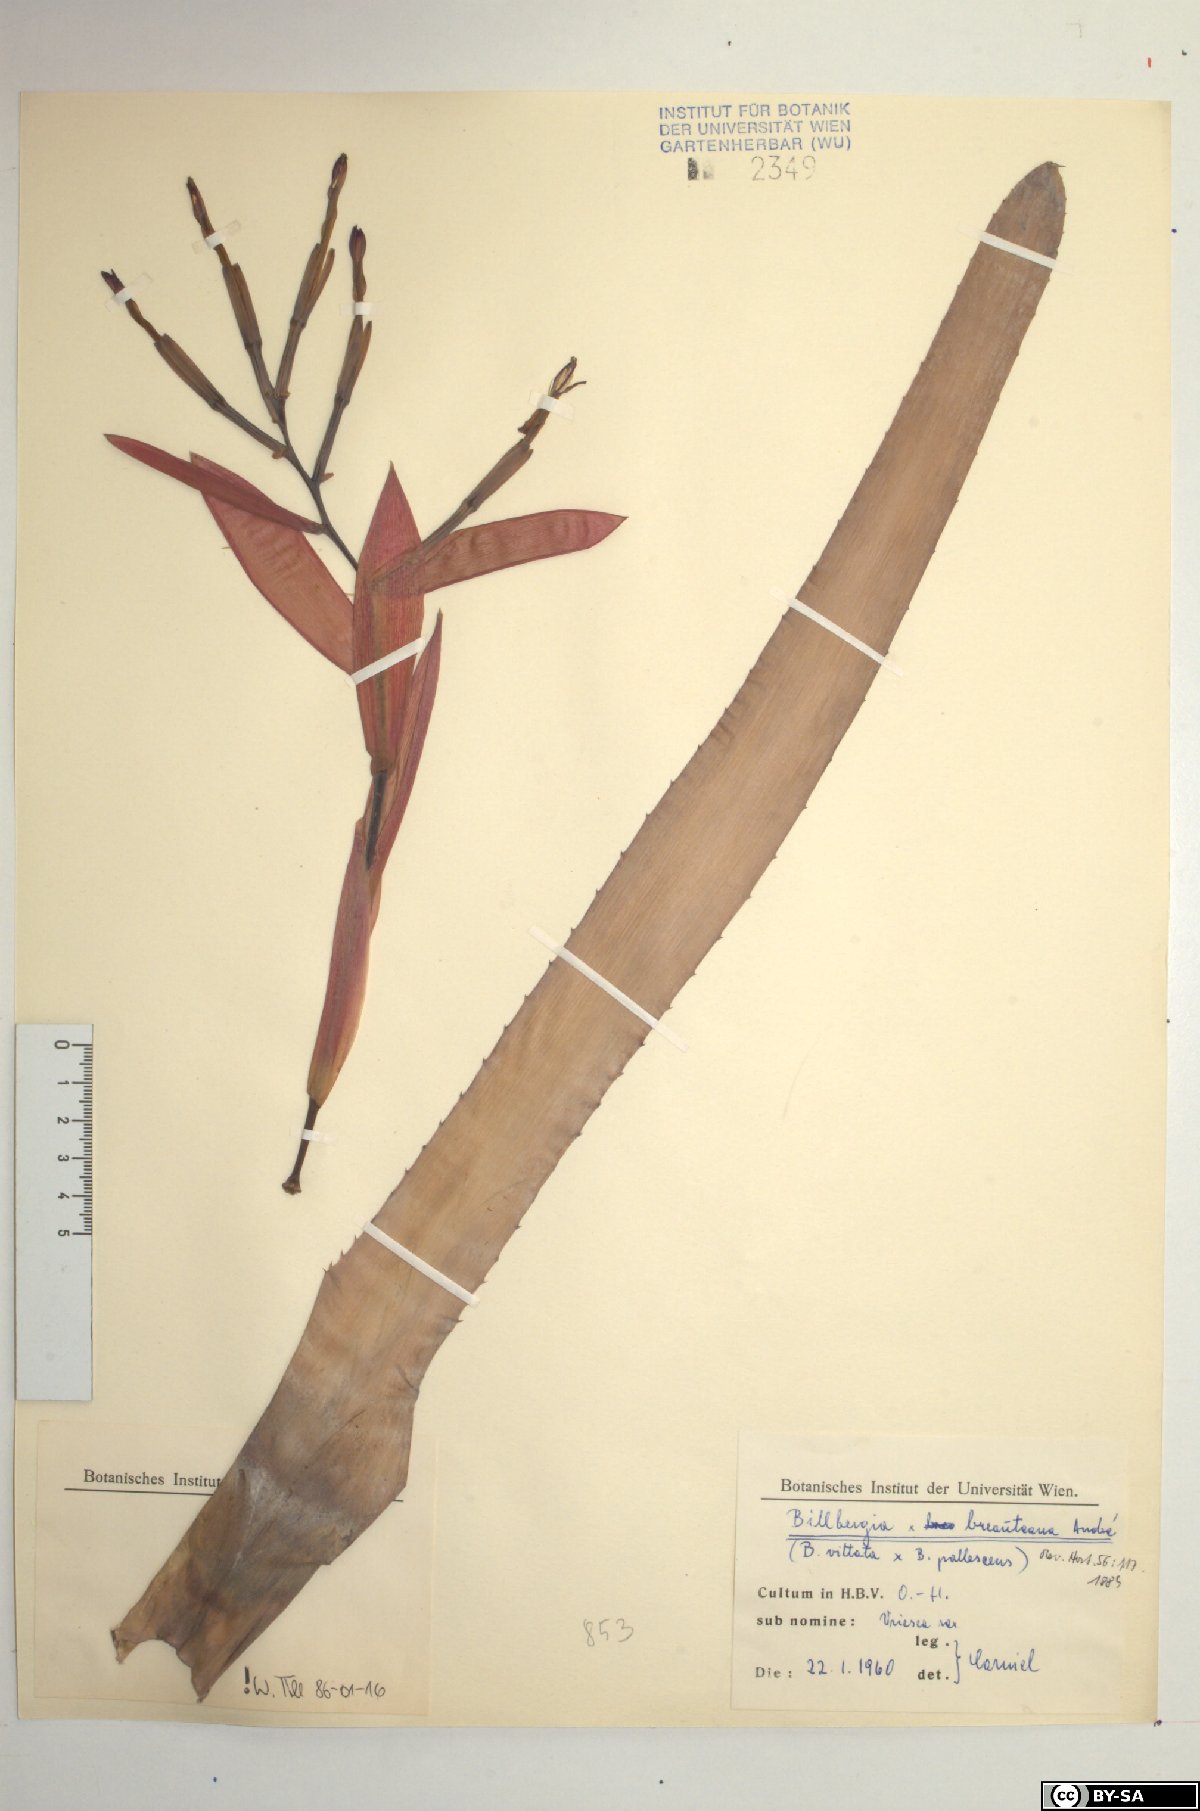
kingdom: Plantae
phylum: Tracheophyta
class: Liliopsida
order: Poales
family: Bromeliaceae
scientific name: Bromeliaceae
